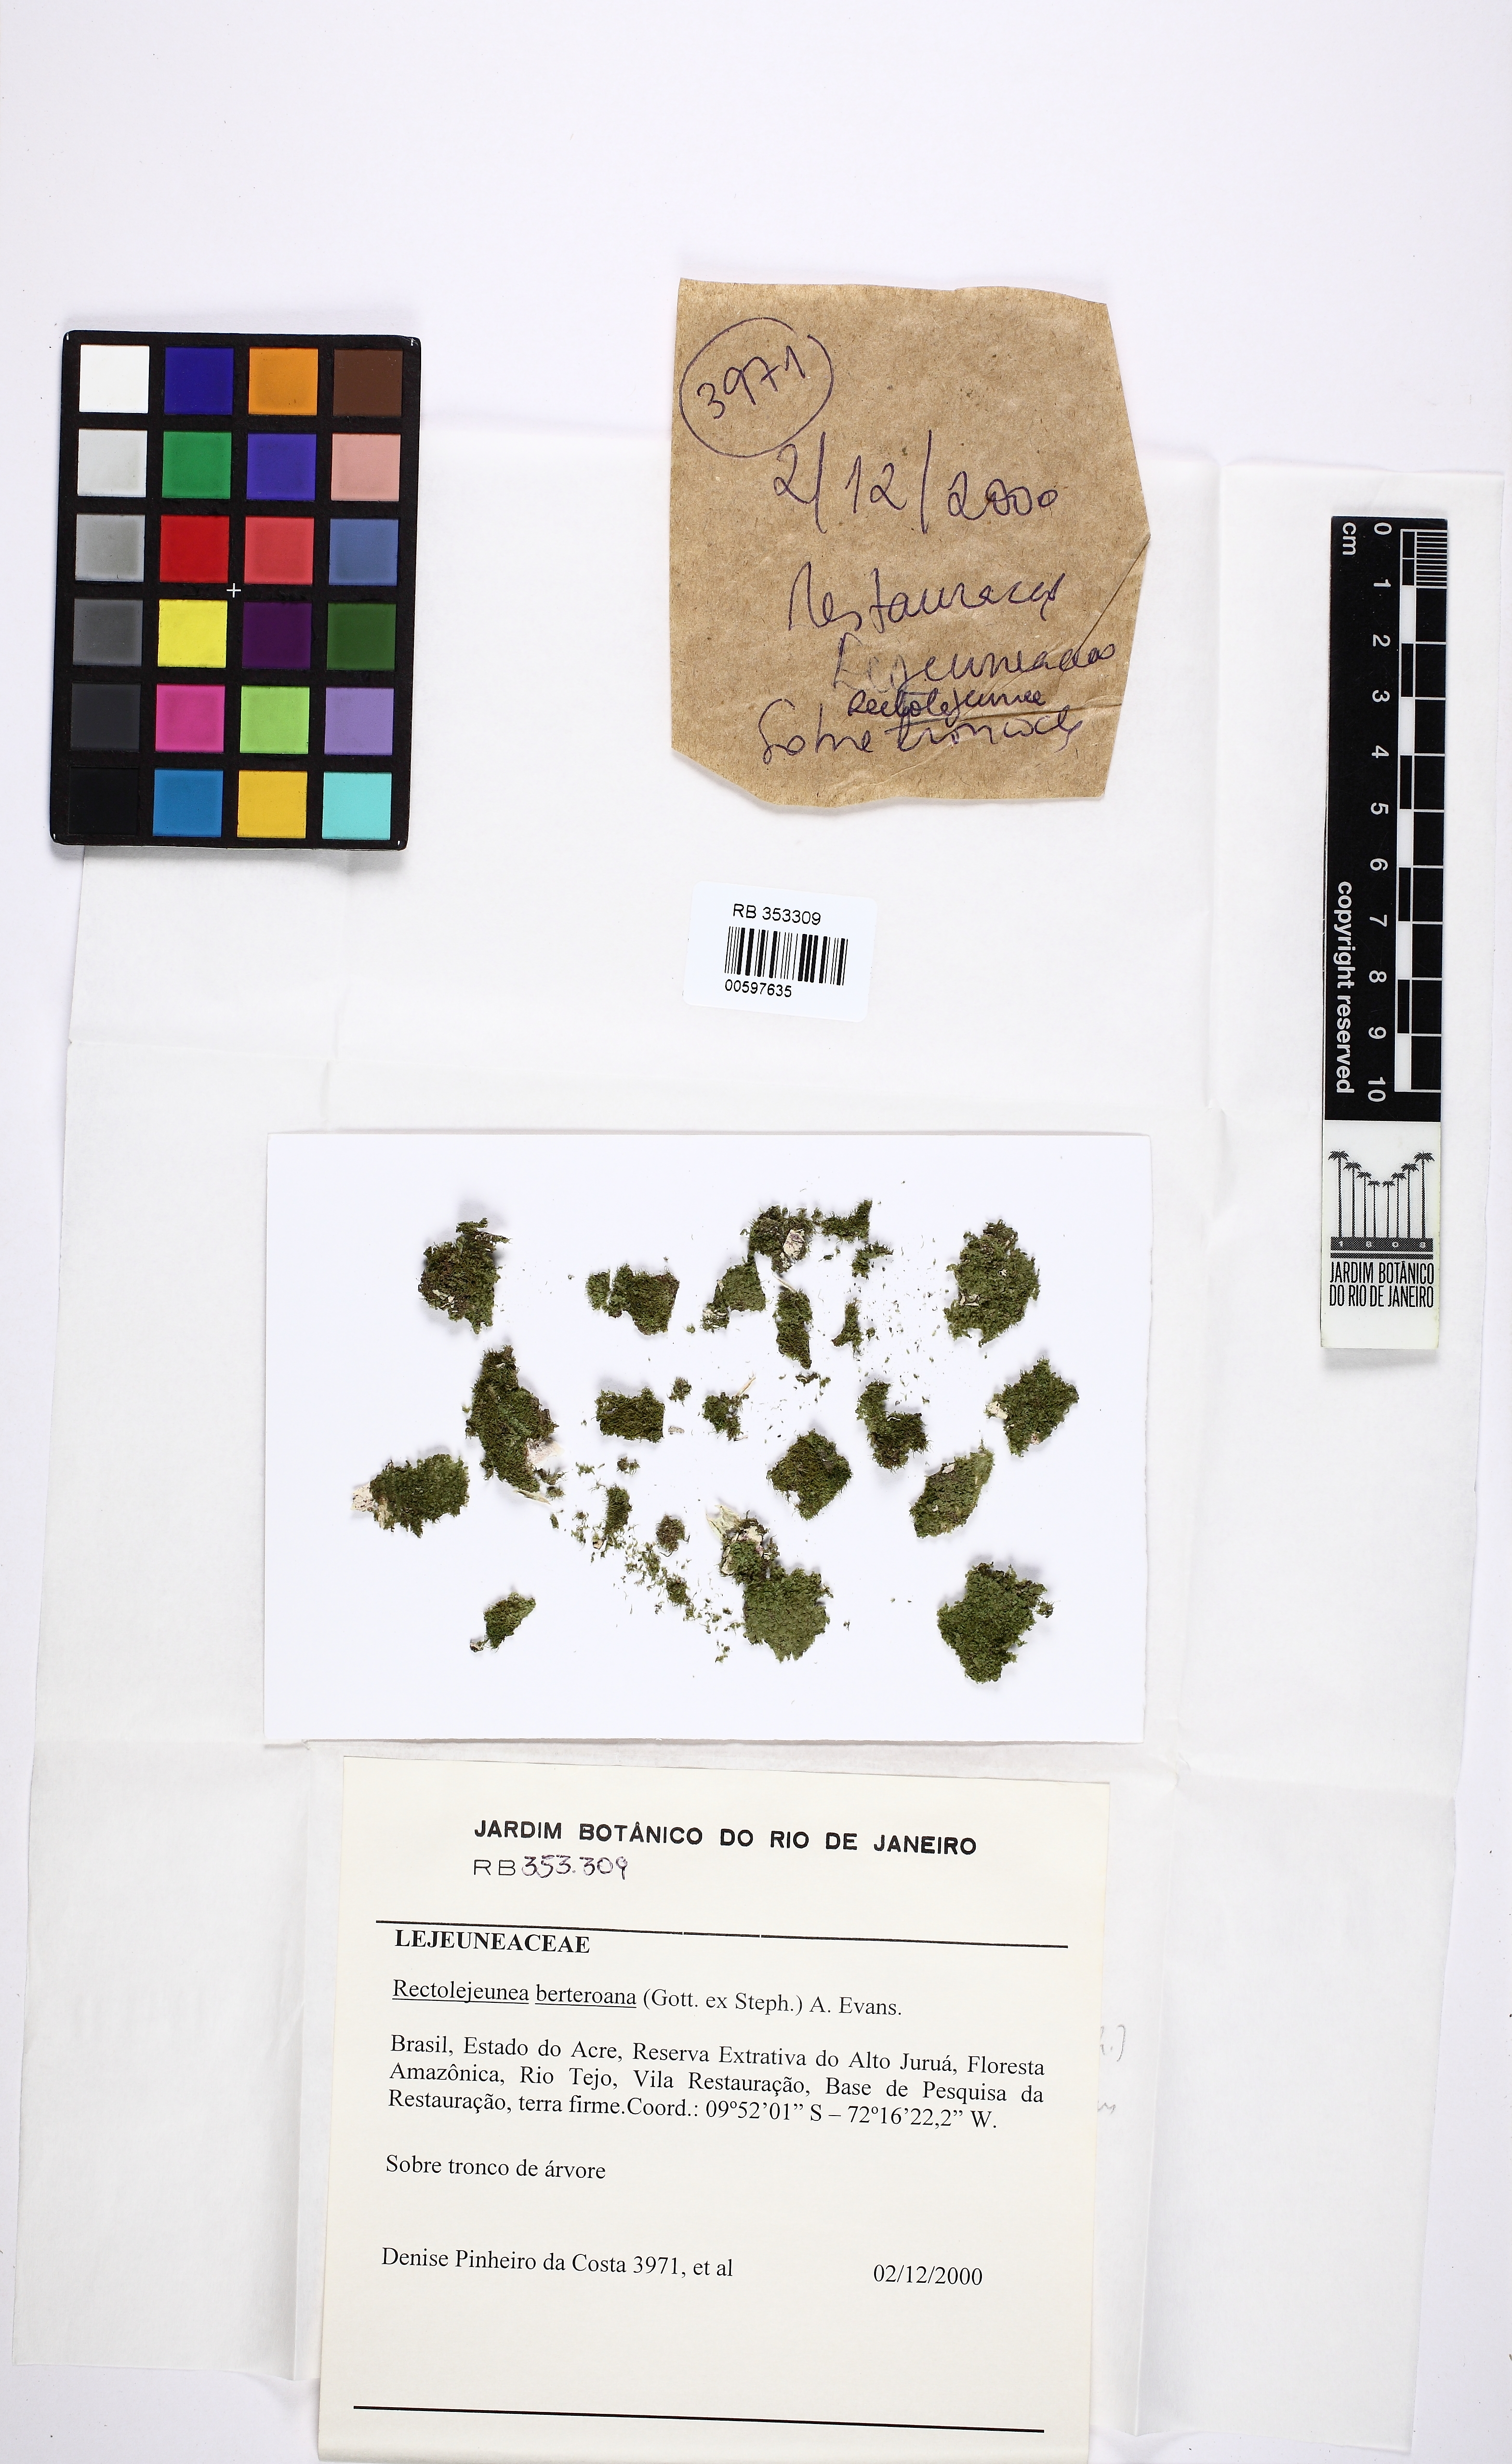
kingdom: Plantae
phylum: Marchantiophyta
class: Jungermanniopsida
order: Porellales
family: Lejeuneaceae
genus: Rectolejeunea
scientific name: Rectolejeunea versifolia
